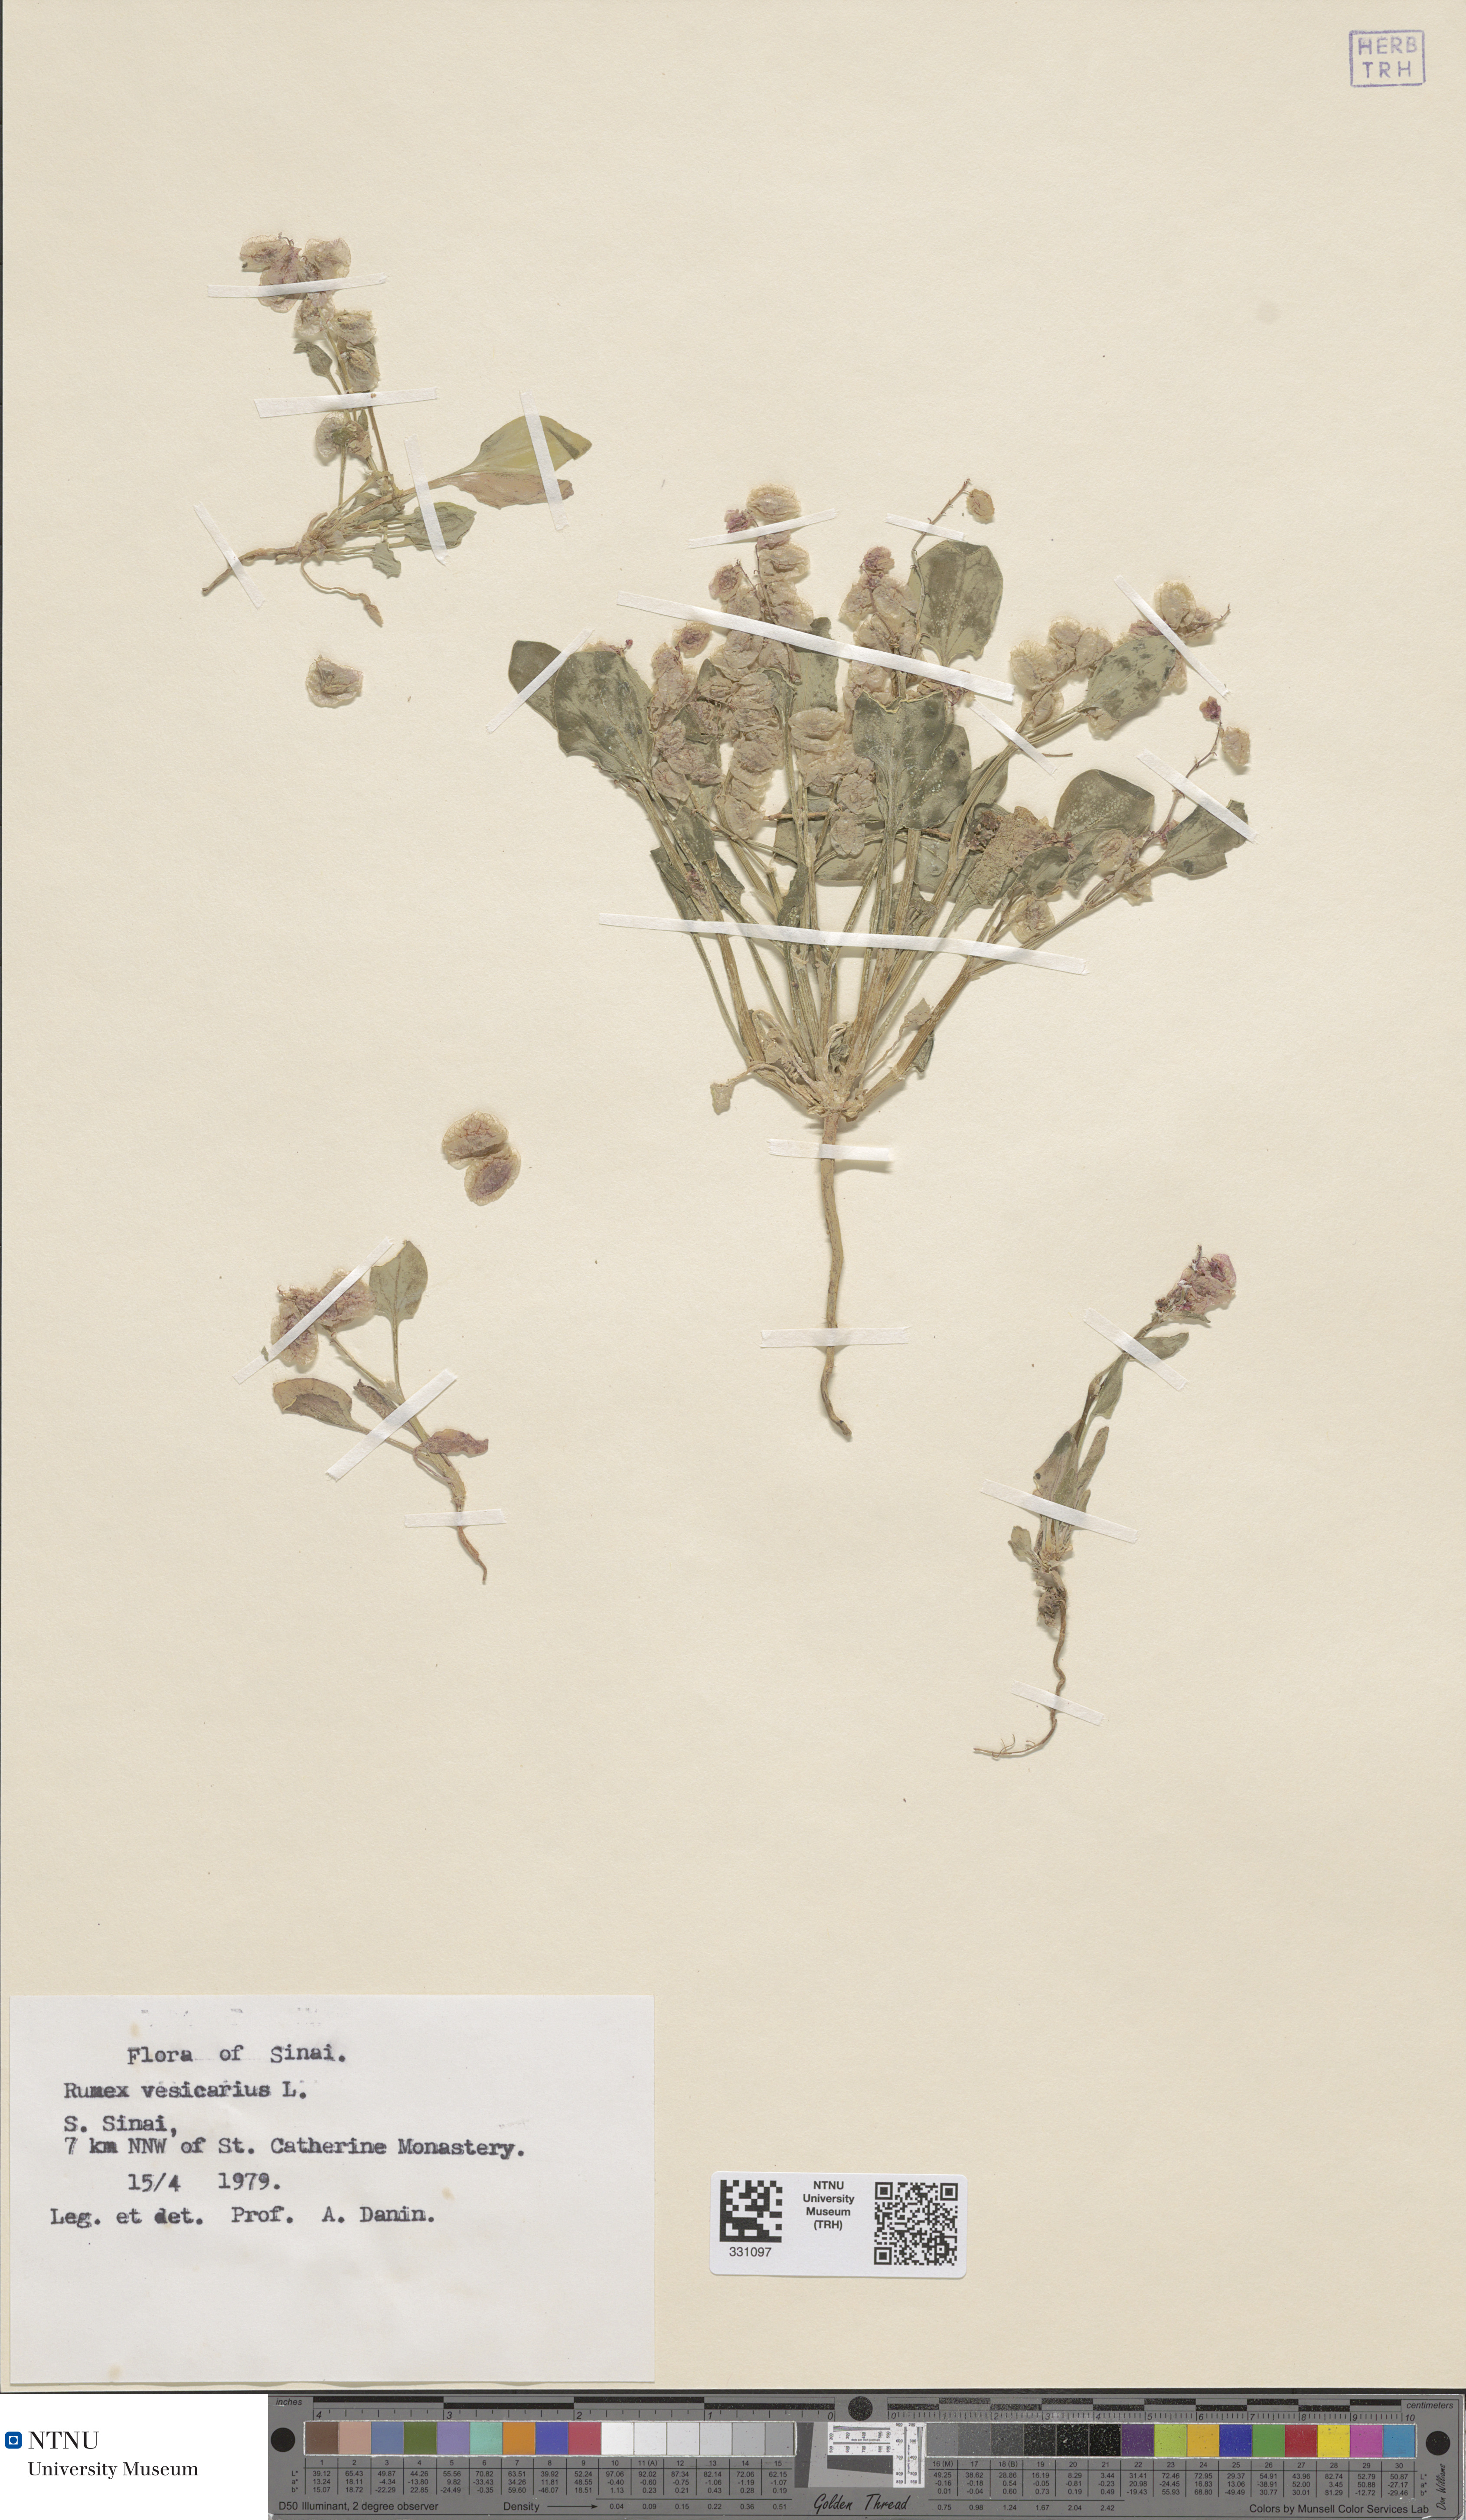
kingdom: Plantae
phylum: Tracheophyta
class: Magnoliopsida
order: Caryophyllales
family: Polygonaceae
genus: Rumex
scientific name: Rumex vesicarius
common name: Bladder dock
